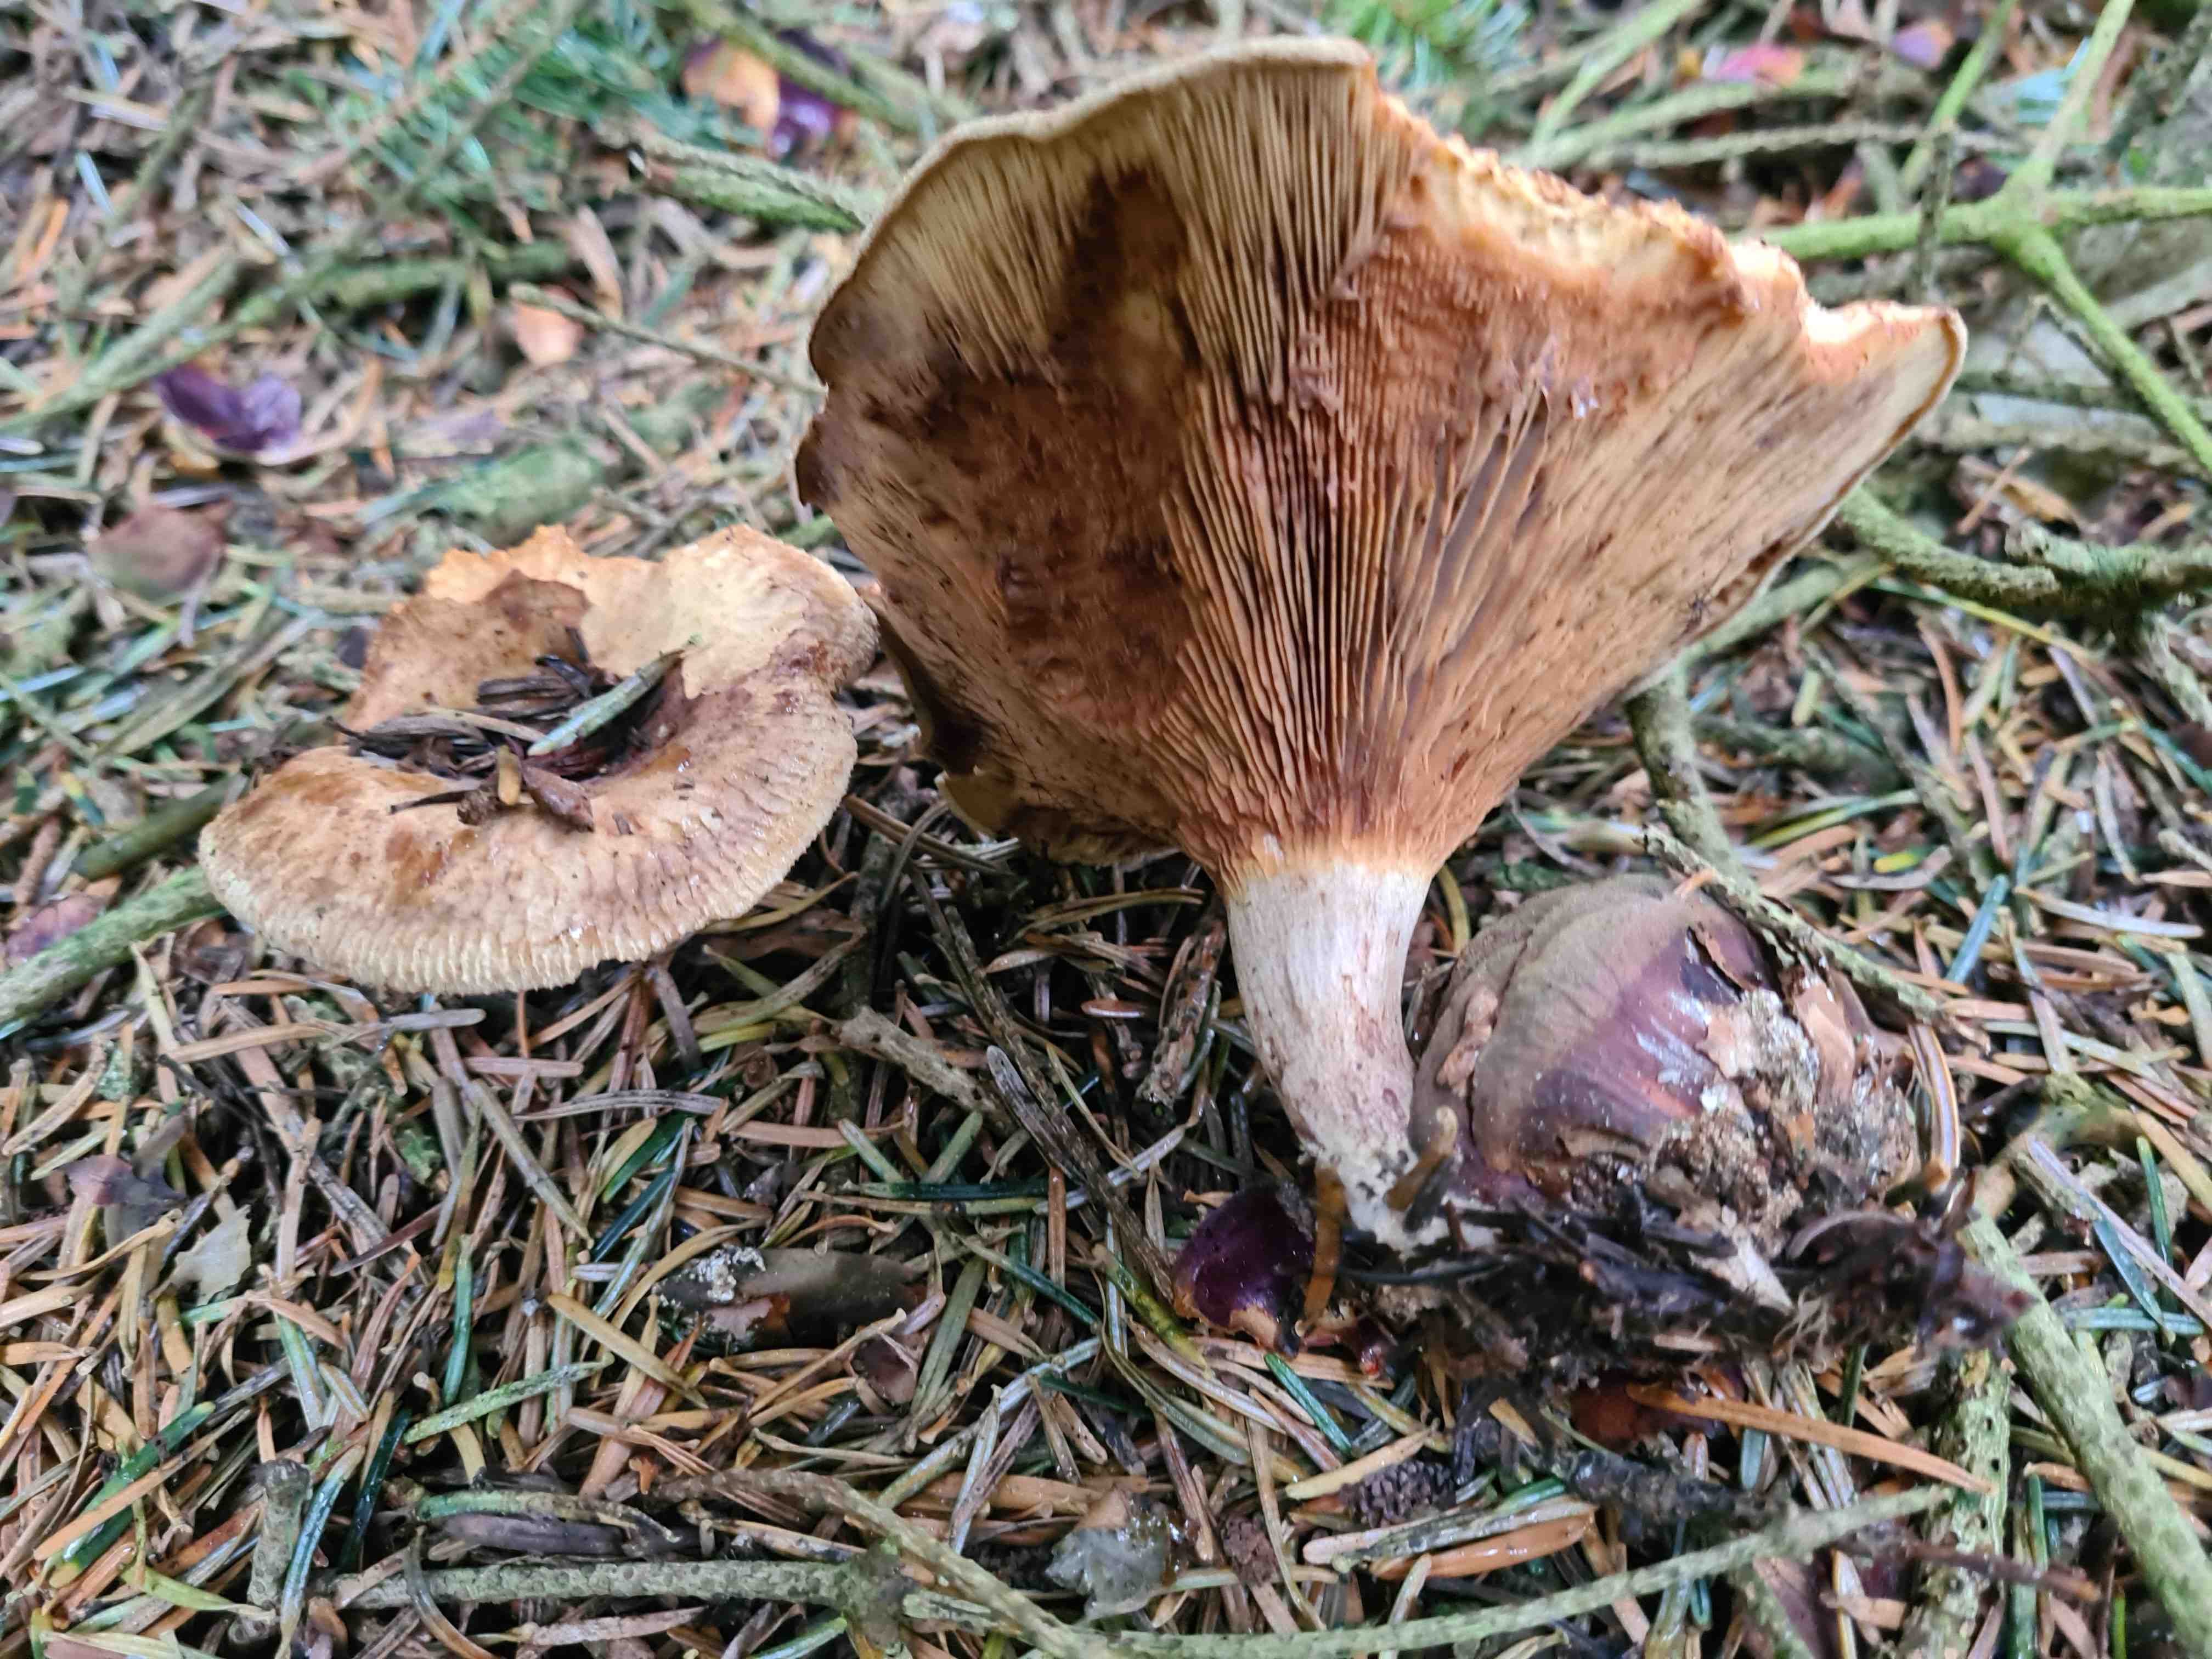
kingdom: Fungi
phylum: Basidiomycota
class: Agaricomycetes
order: Boletales
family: Paxillaceae
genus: Paxillus
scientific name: Paxillus involutus
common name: almindelig netbladhat
